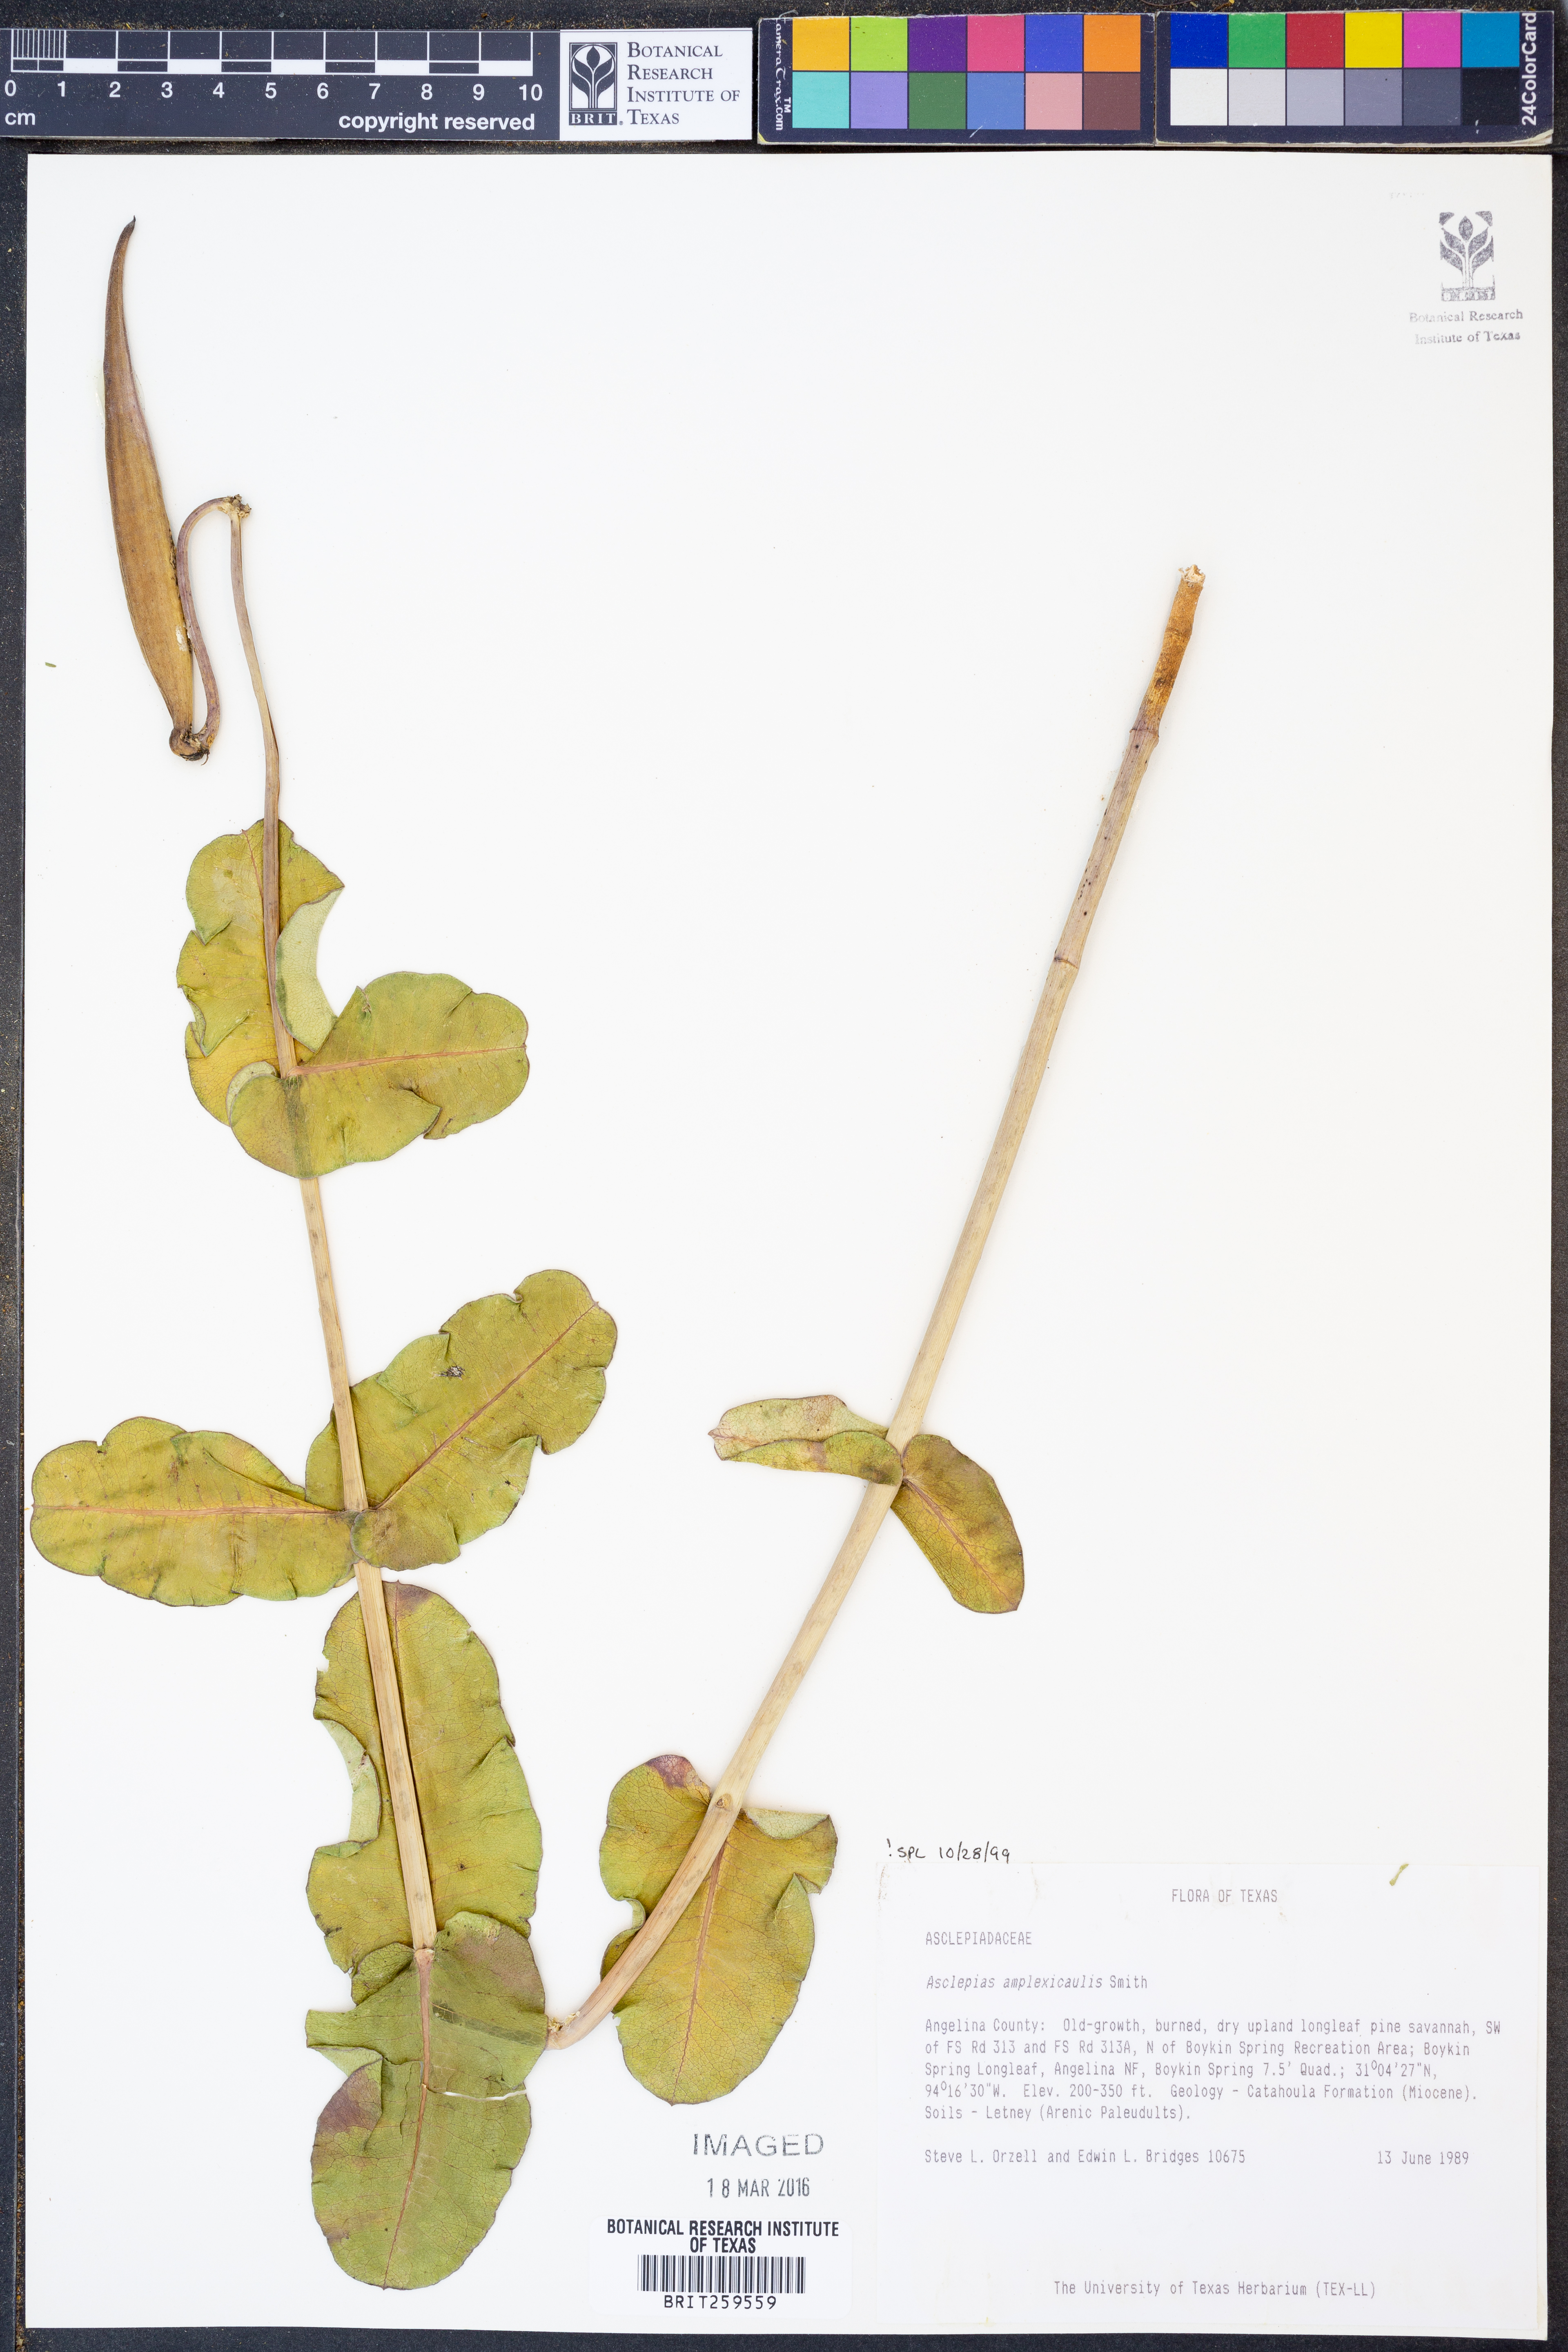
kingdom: Plantae
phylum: Tracheophyta
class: Magnoliopsida
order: Gentianales
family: Apocynaceae
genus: Asclepias
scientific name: Asclepias amplexicaulis
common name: Blunt-leaf milkweed
